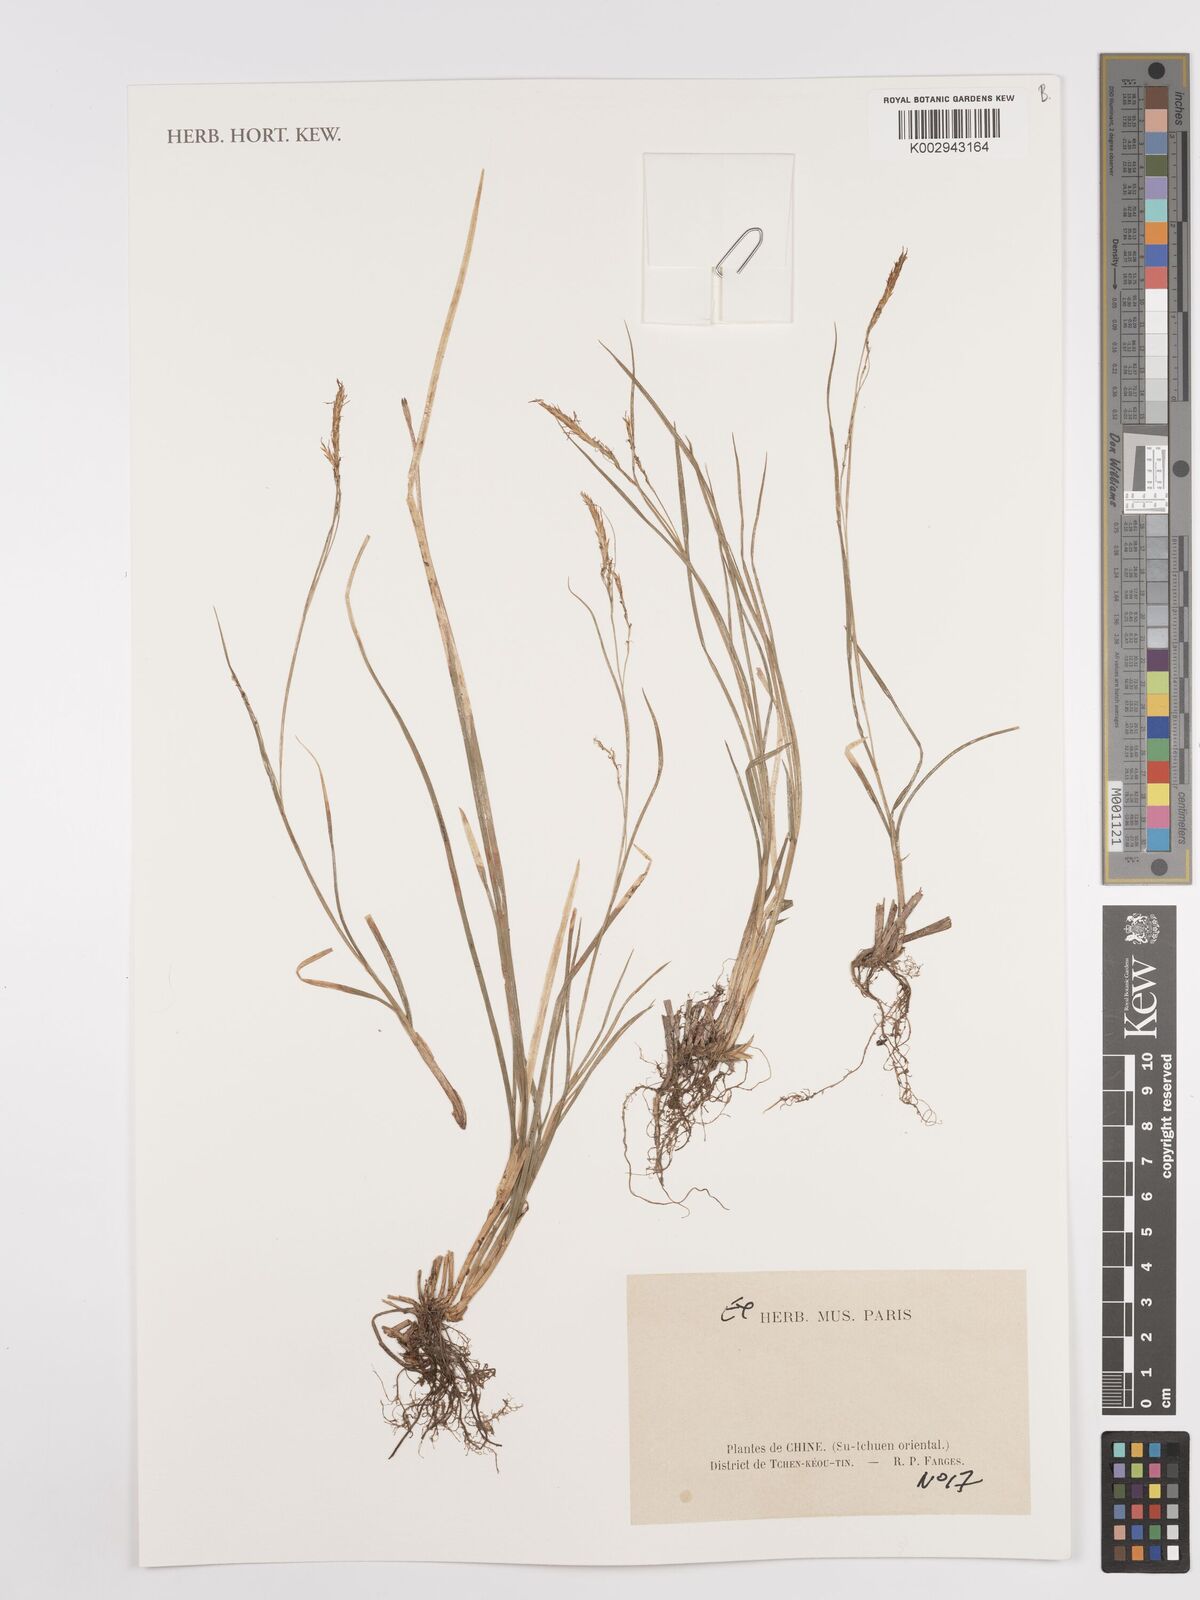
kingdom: Plantae
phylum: Tracheophyta
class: Liliopsida
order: Poales
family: Cyperaceae
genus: Carex
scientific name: Carex
